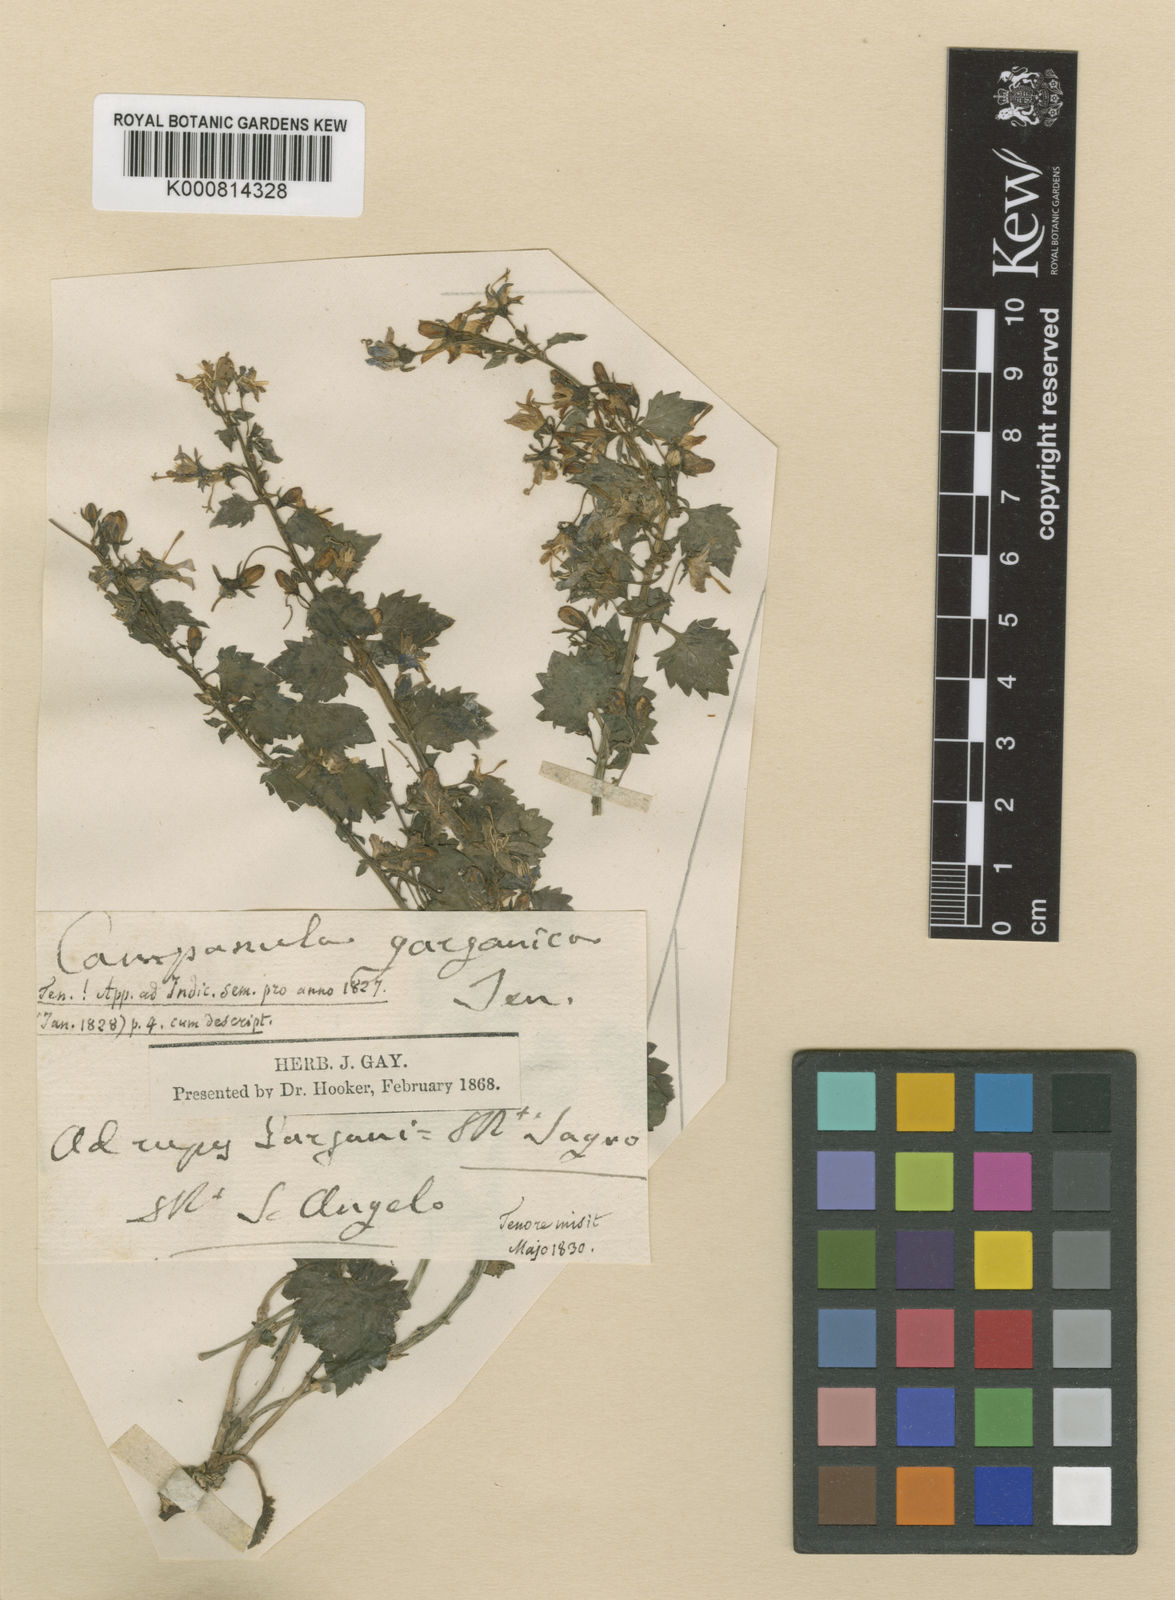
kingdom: Plantae
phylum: Tracheophyta
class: Magnoliopsida
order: Asterales
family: Campanulaceae
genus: Campanula
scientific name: Campanula garganica
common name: Adriatic bellflower
